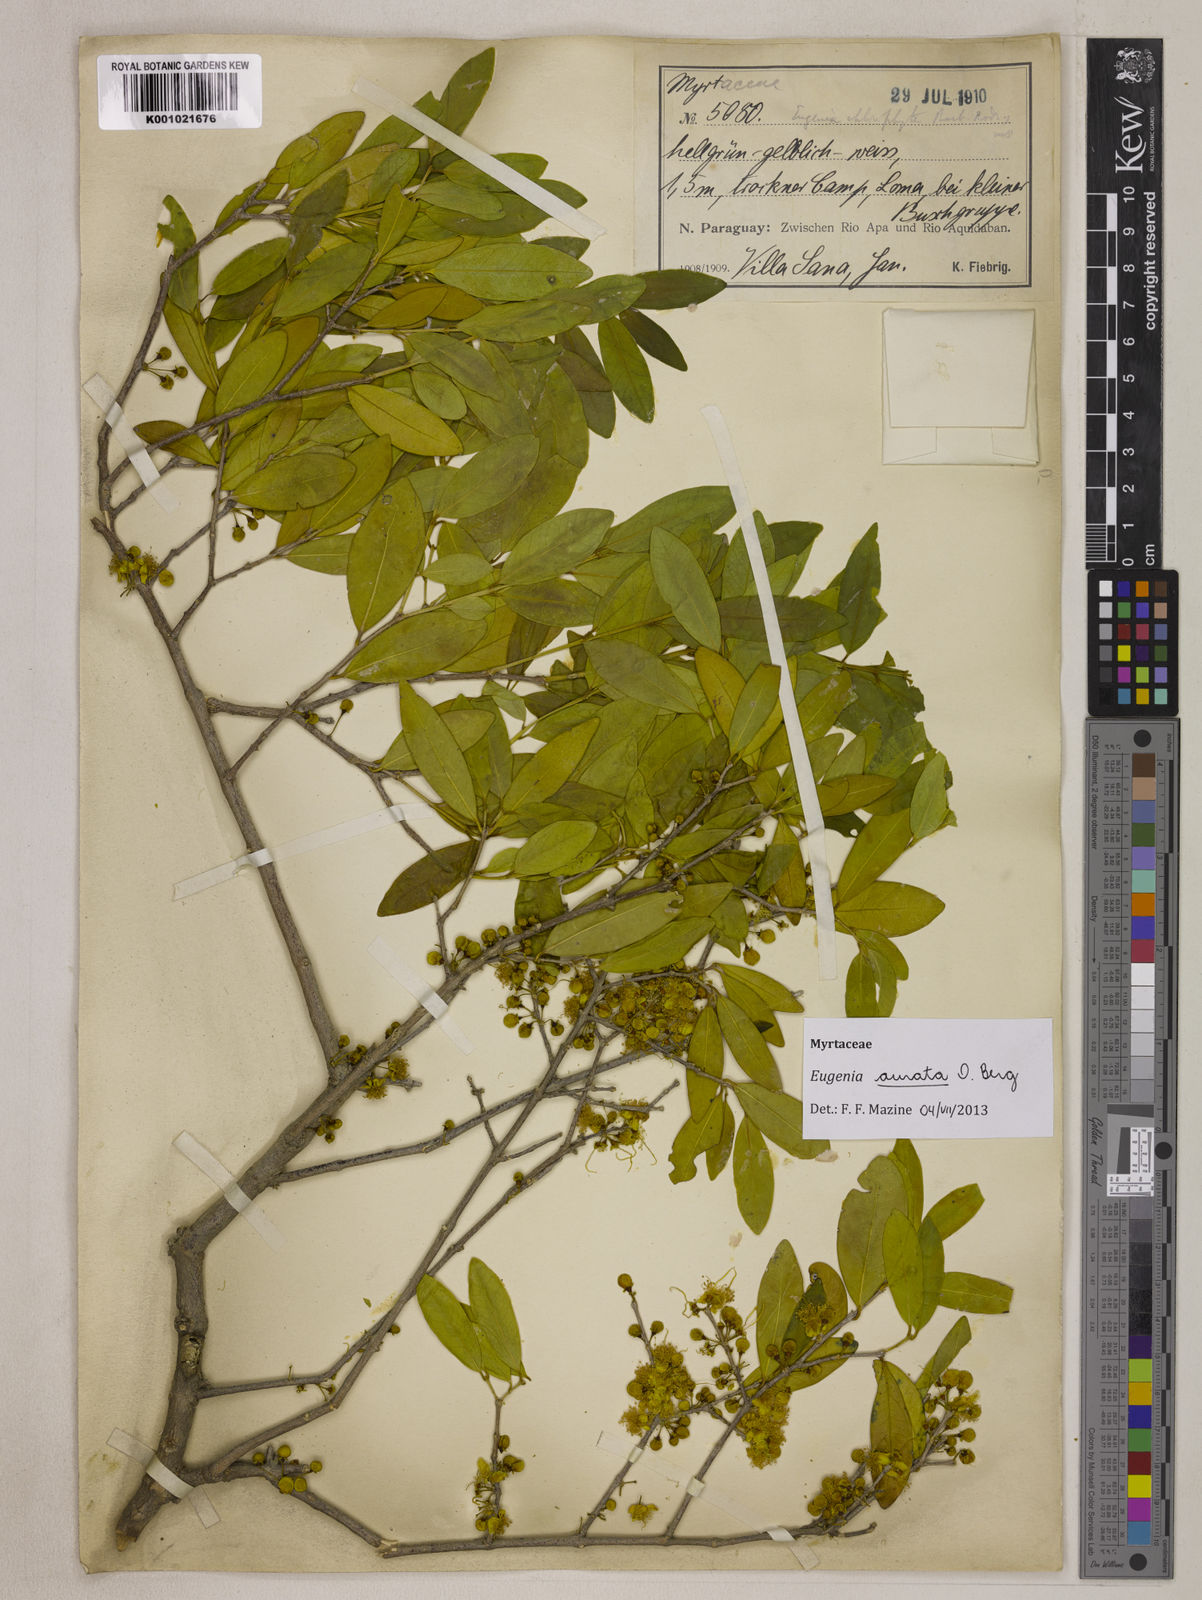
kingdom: Plantae
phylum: Tracheophyta
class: Magnoliopsida
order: Myrtales
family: Myrtaceae
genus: Eugenia
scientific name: Eugenia aurata
